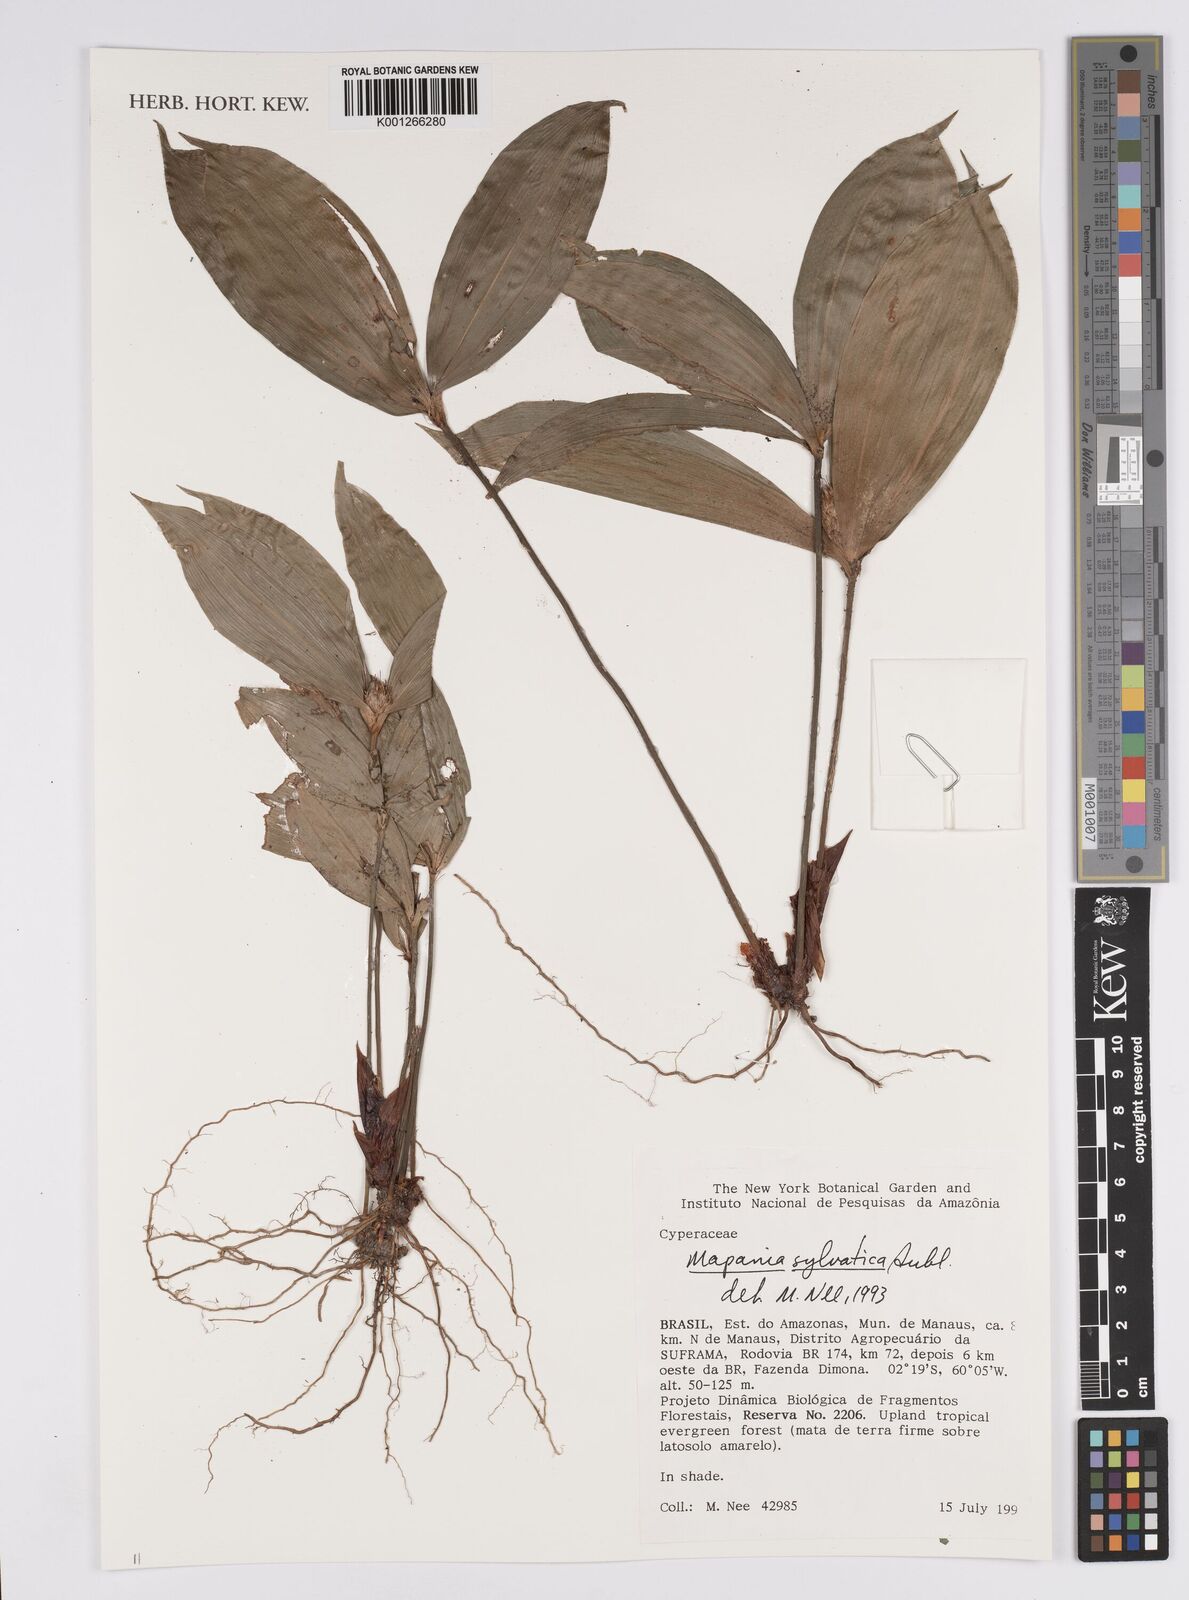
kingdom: Plantae
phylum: Tracheophyta
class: Liliopsida
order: Poales
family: Cyperaceae
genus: Mapania
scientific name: Mapania sylvatica
